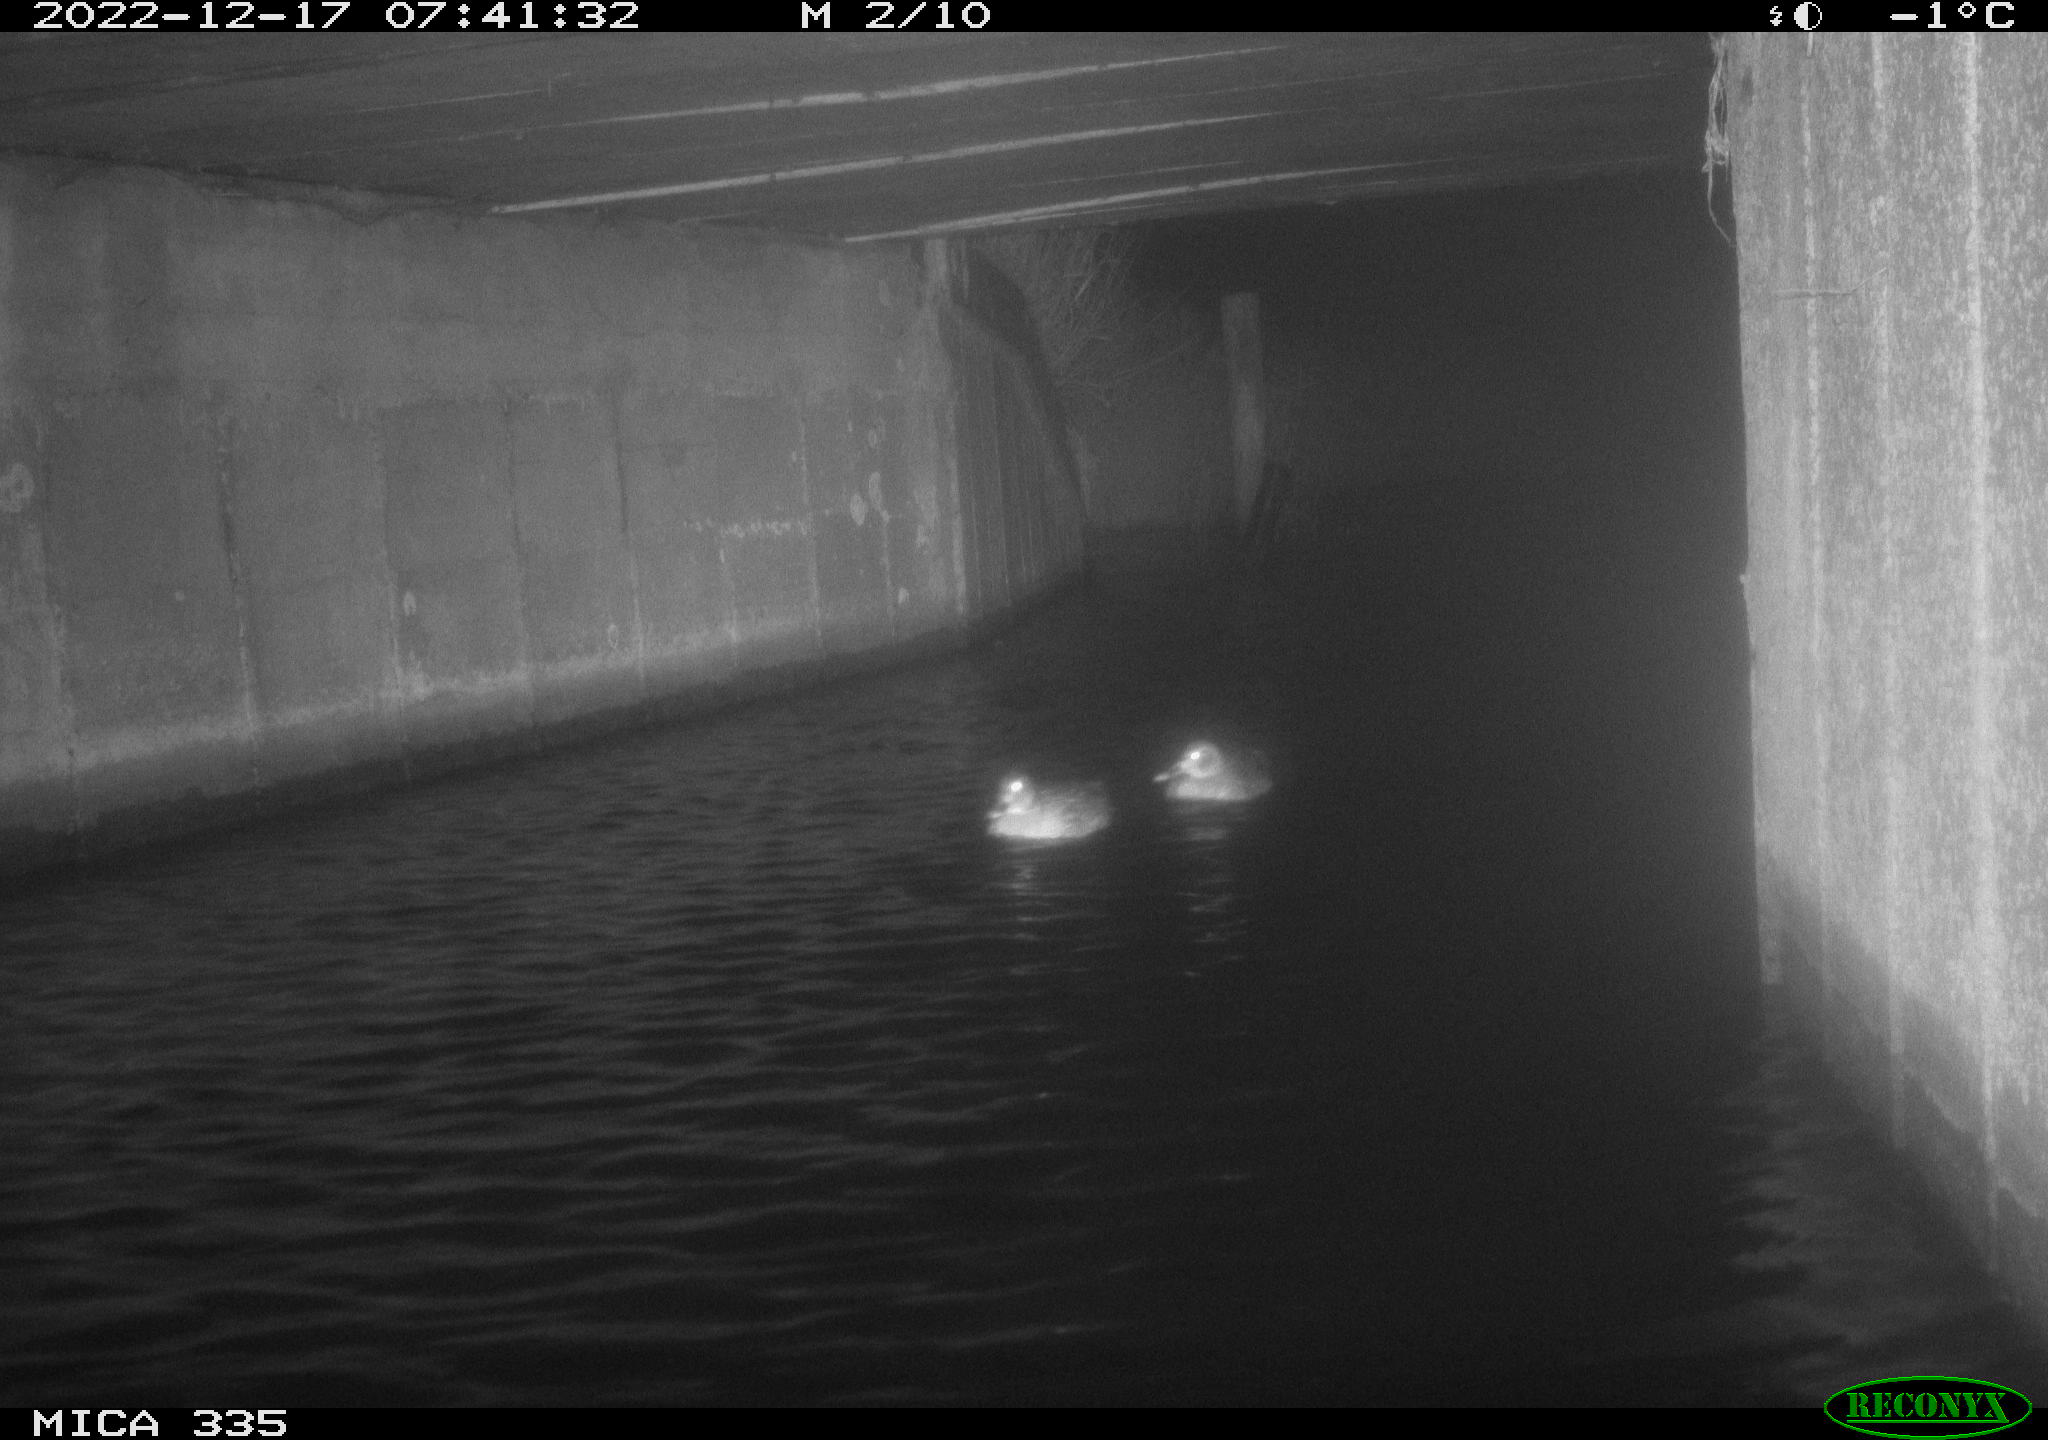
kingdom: Animalia
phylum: Chordata
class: Aves
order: Anseriformes
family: Anatidae
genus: Anas
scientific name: Anas
